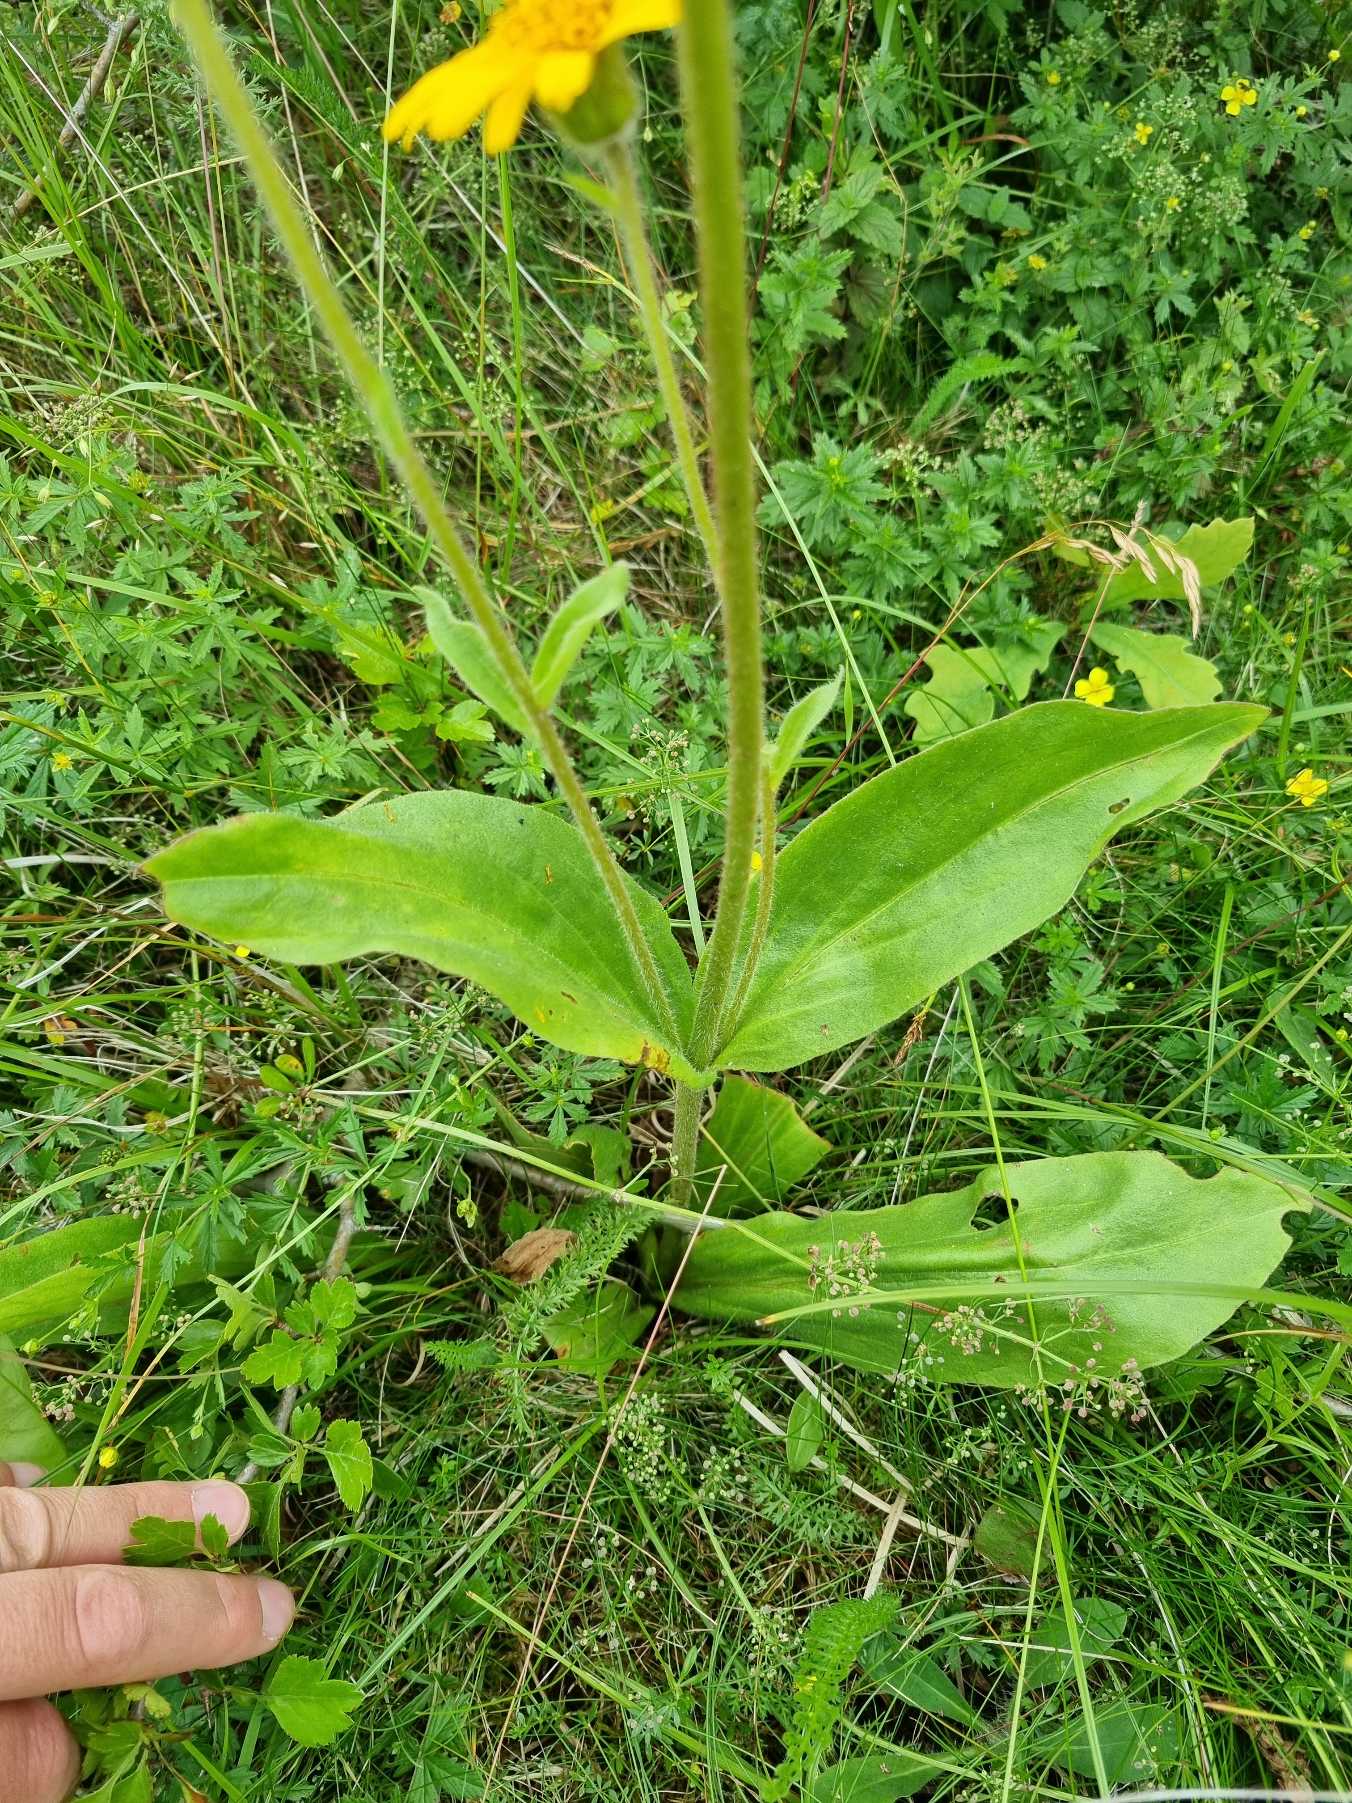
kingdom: Plantae
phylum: Tracheophyta
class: Magnoliopsida
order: Asterales
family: Asteraceae
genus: Arnica
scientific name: Arnica montana
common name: Guldblomme
